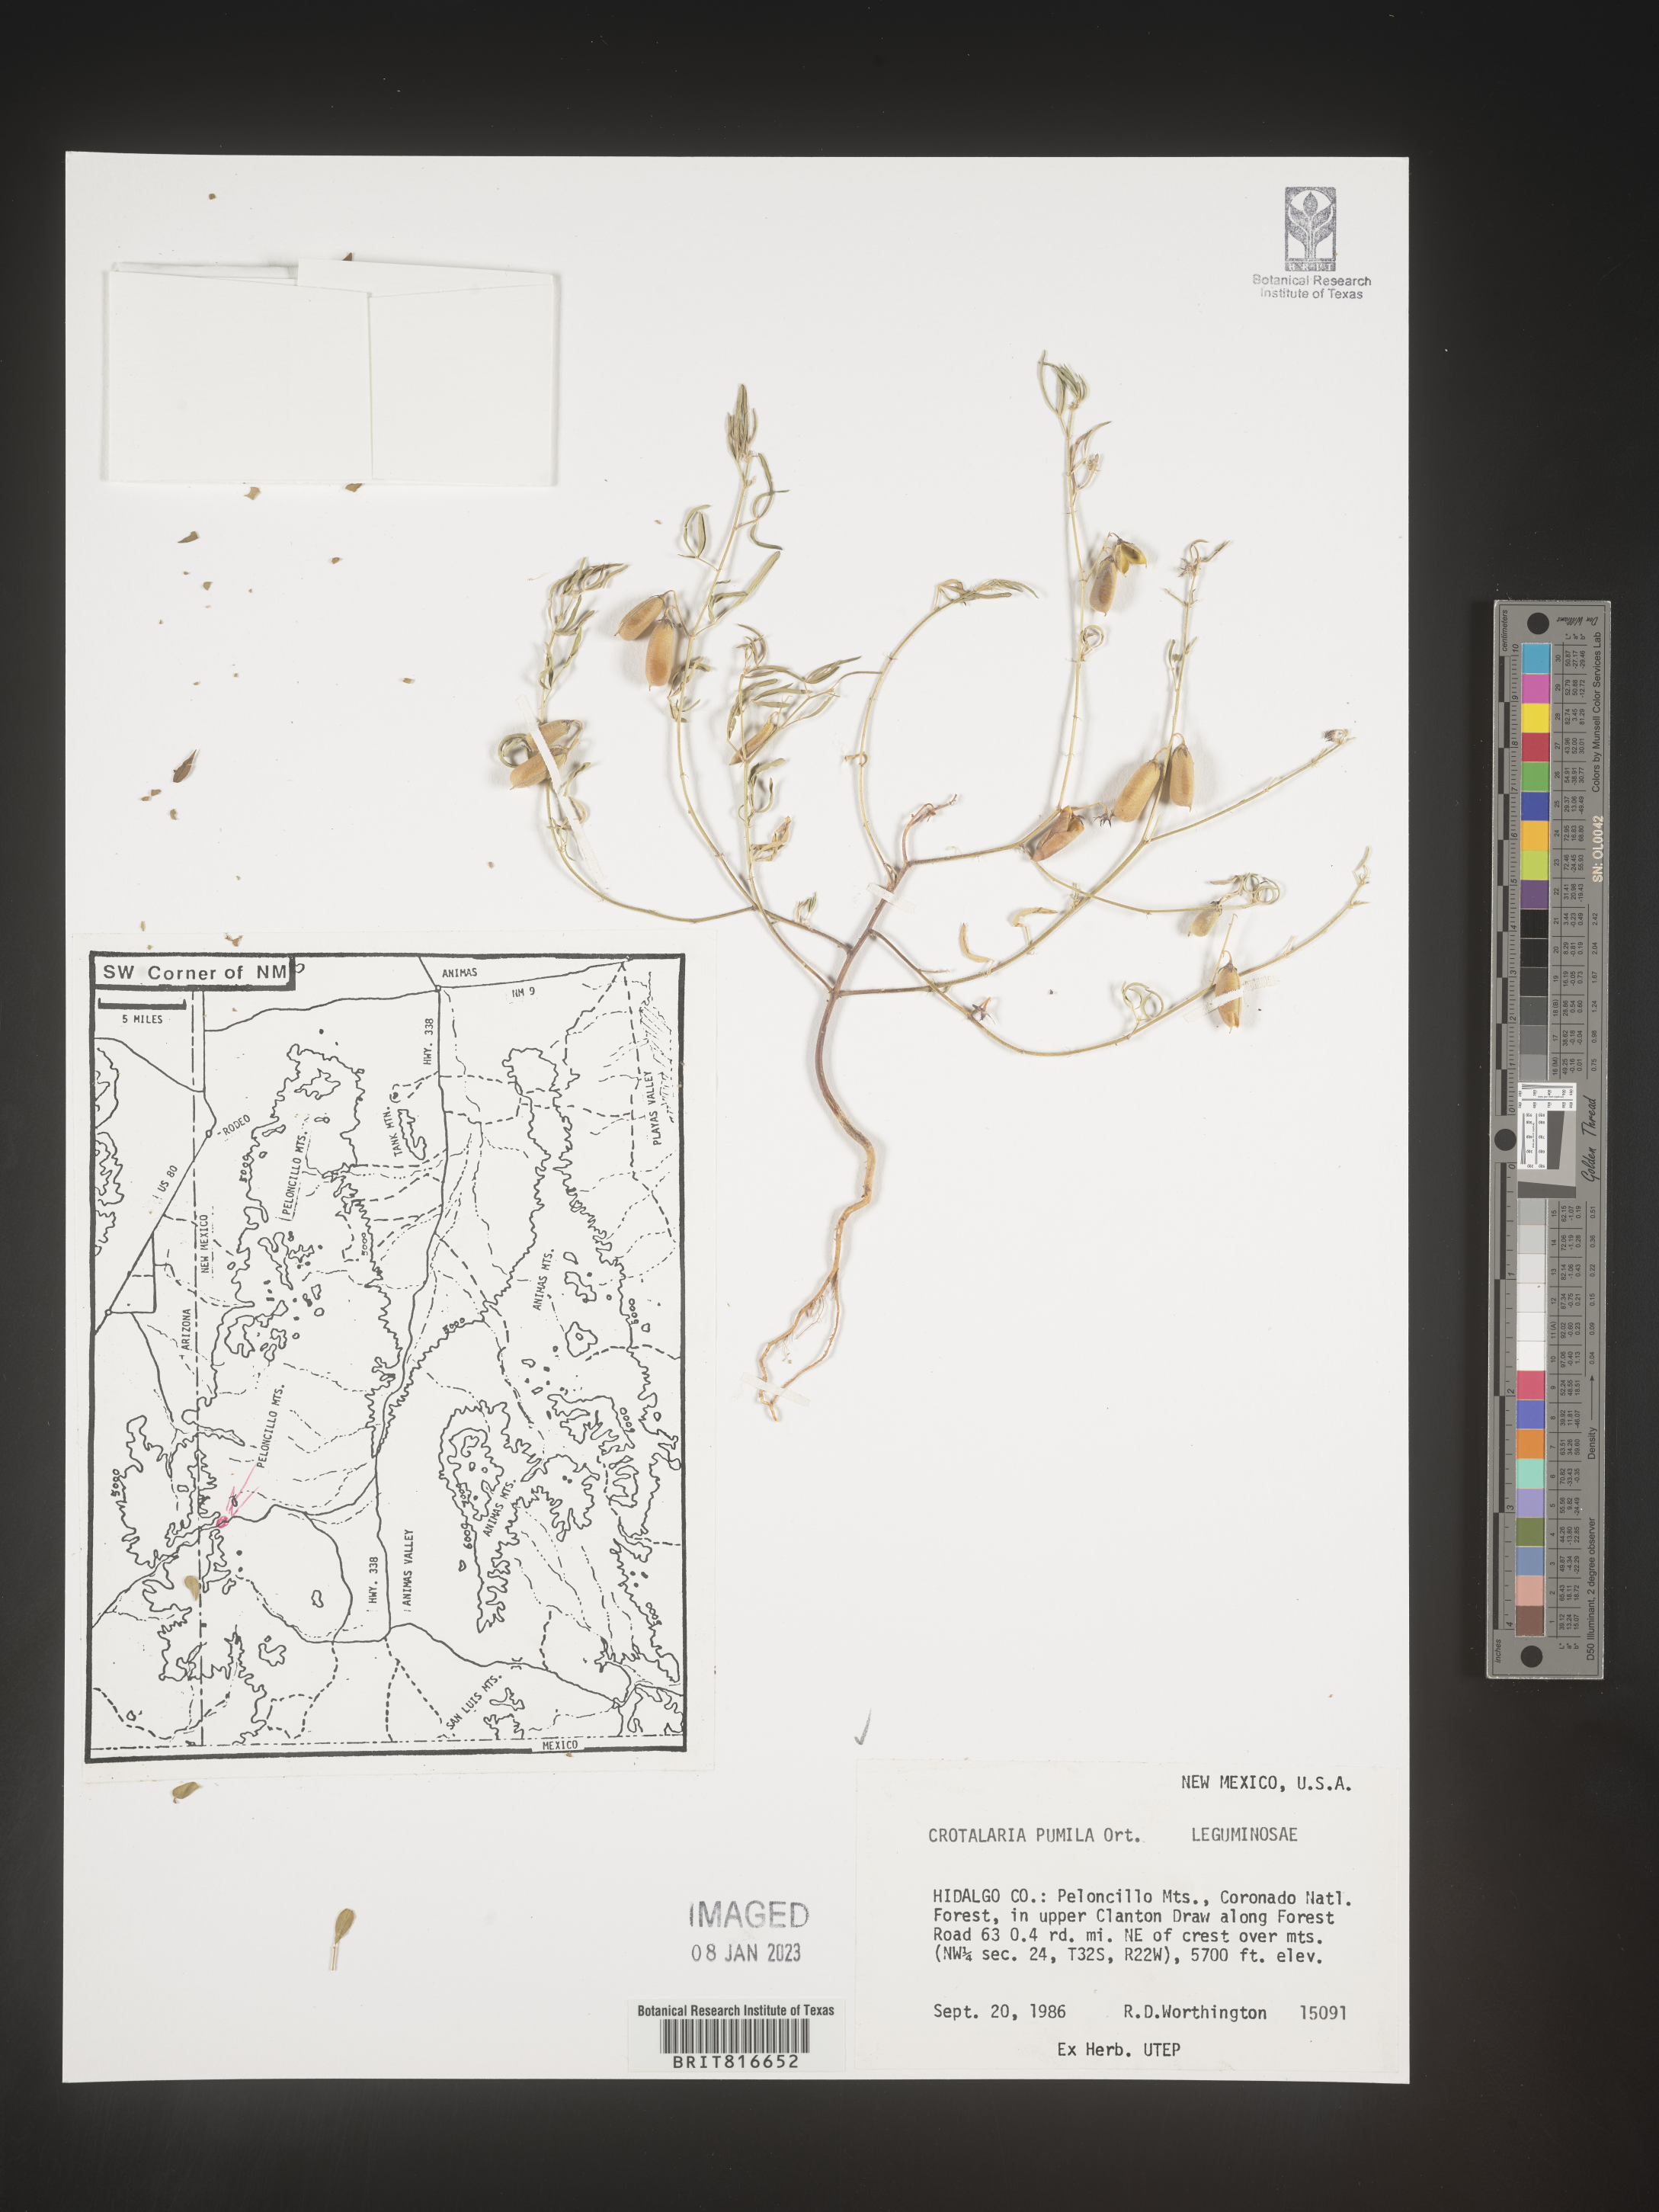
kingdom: Plantae
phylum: Tracheophyta
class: Magnoliopsida
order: Fabales
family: Fabaceae
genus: Crotalaria
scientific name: Crotalaria pumila
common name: Low rattlebox
